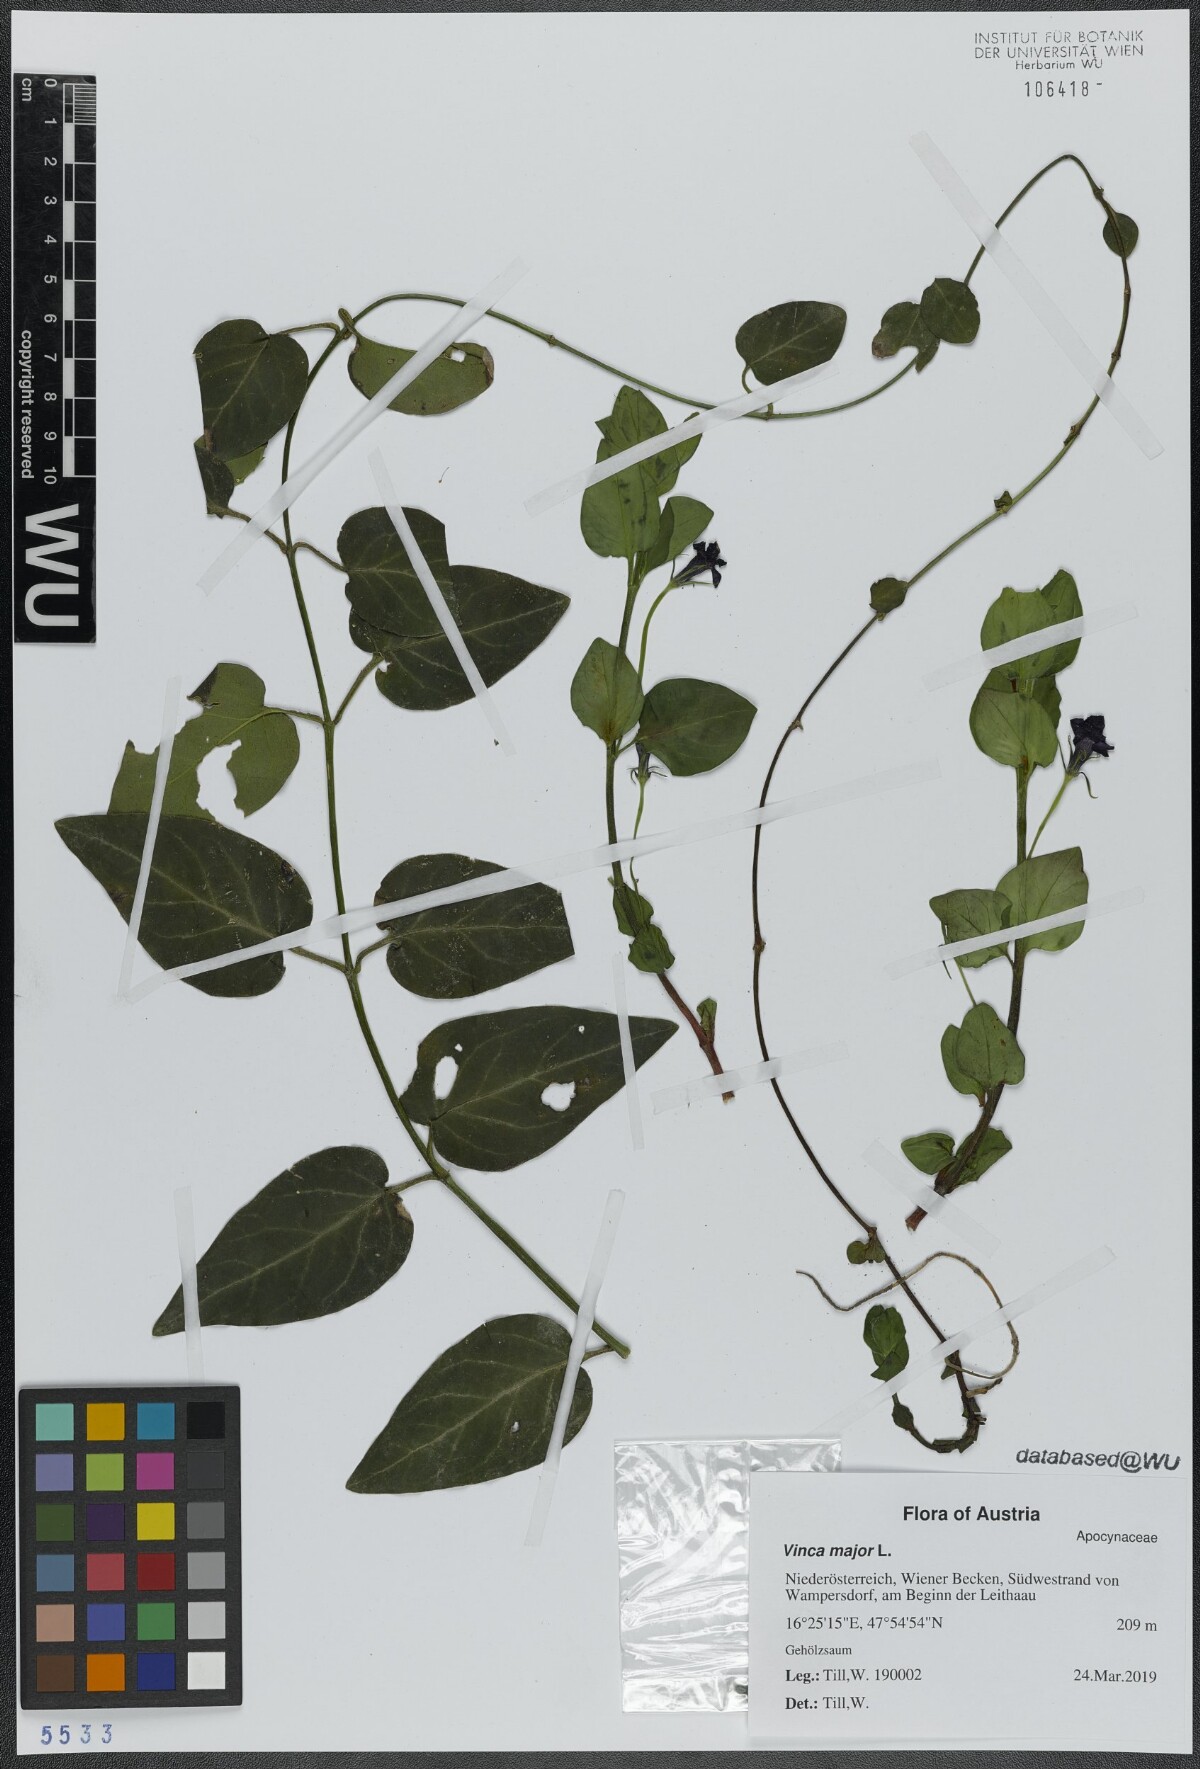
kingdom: Plantae
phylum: Tracheophyta
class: Magnoliopsida
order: Gentianales
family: Apocynaceae
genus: Vinca
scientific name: Vinca major
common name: Greater periwinkle
